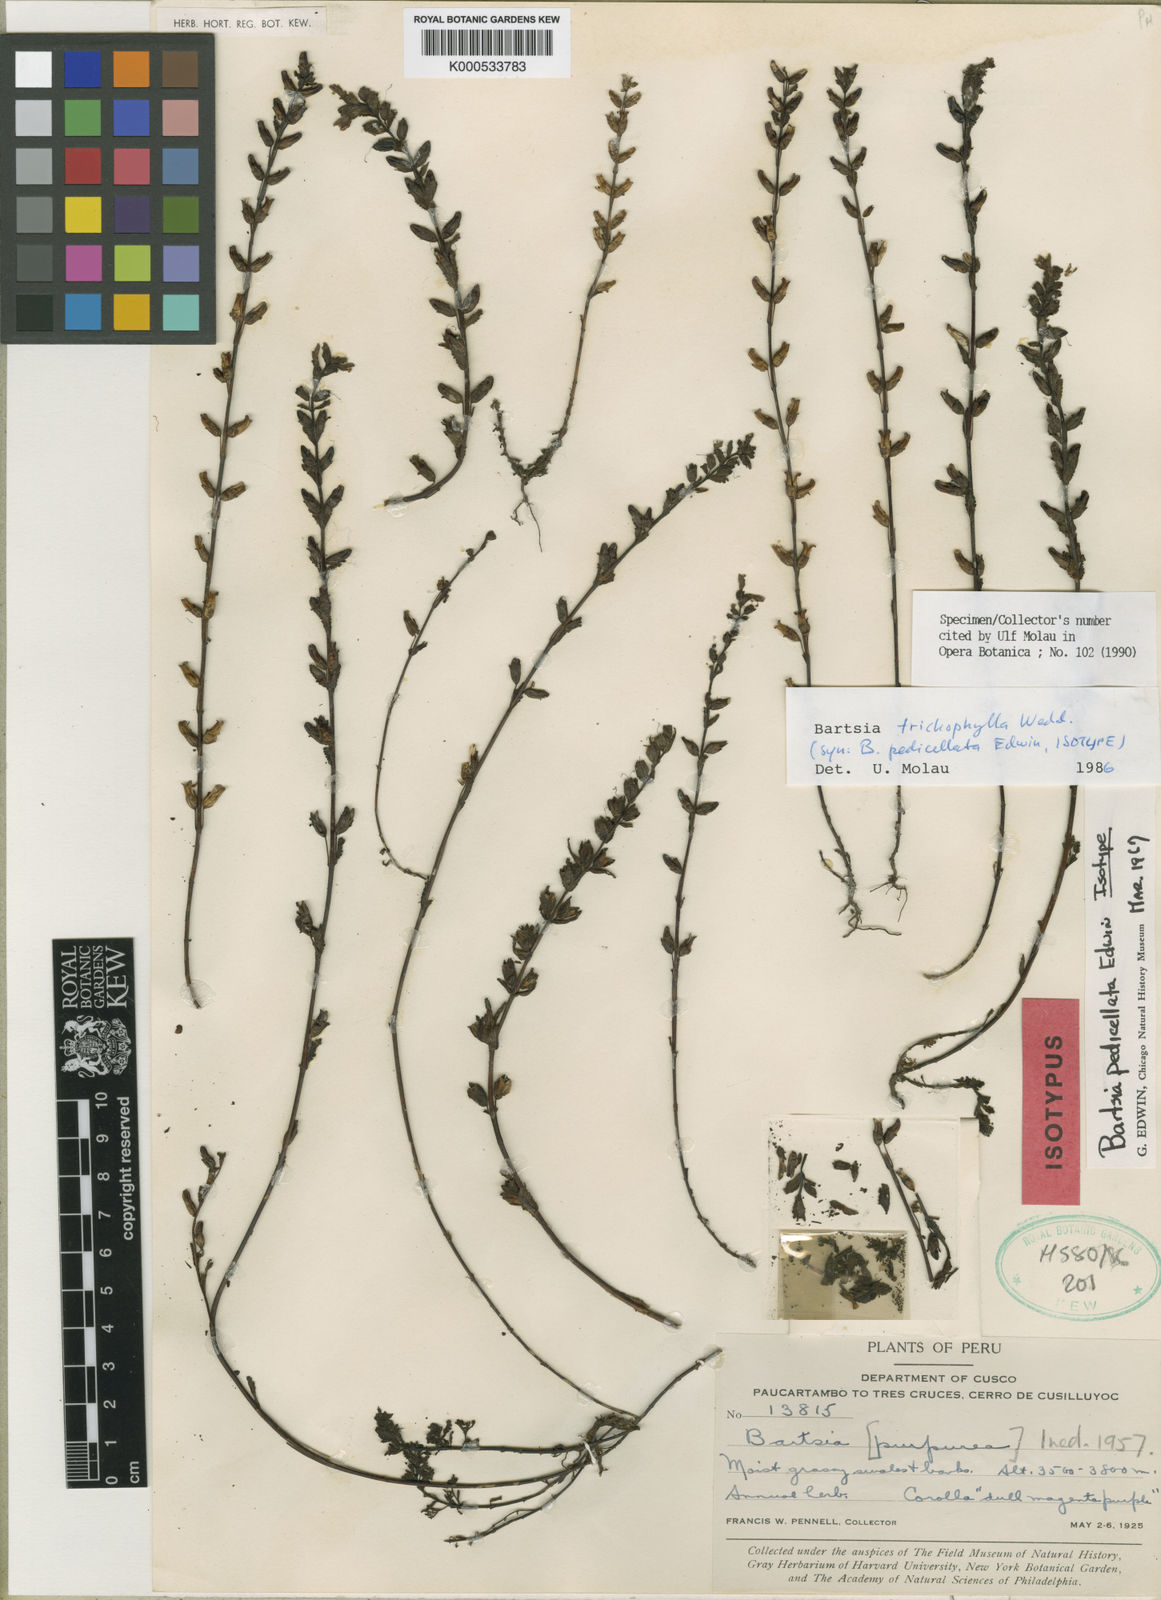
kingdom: Plantae
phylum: Tracheophyta
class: Magnoliopsida
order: Lamiales
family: Orobanchaceae
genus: Neobartsia
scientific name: Neobartsia trichophylla
